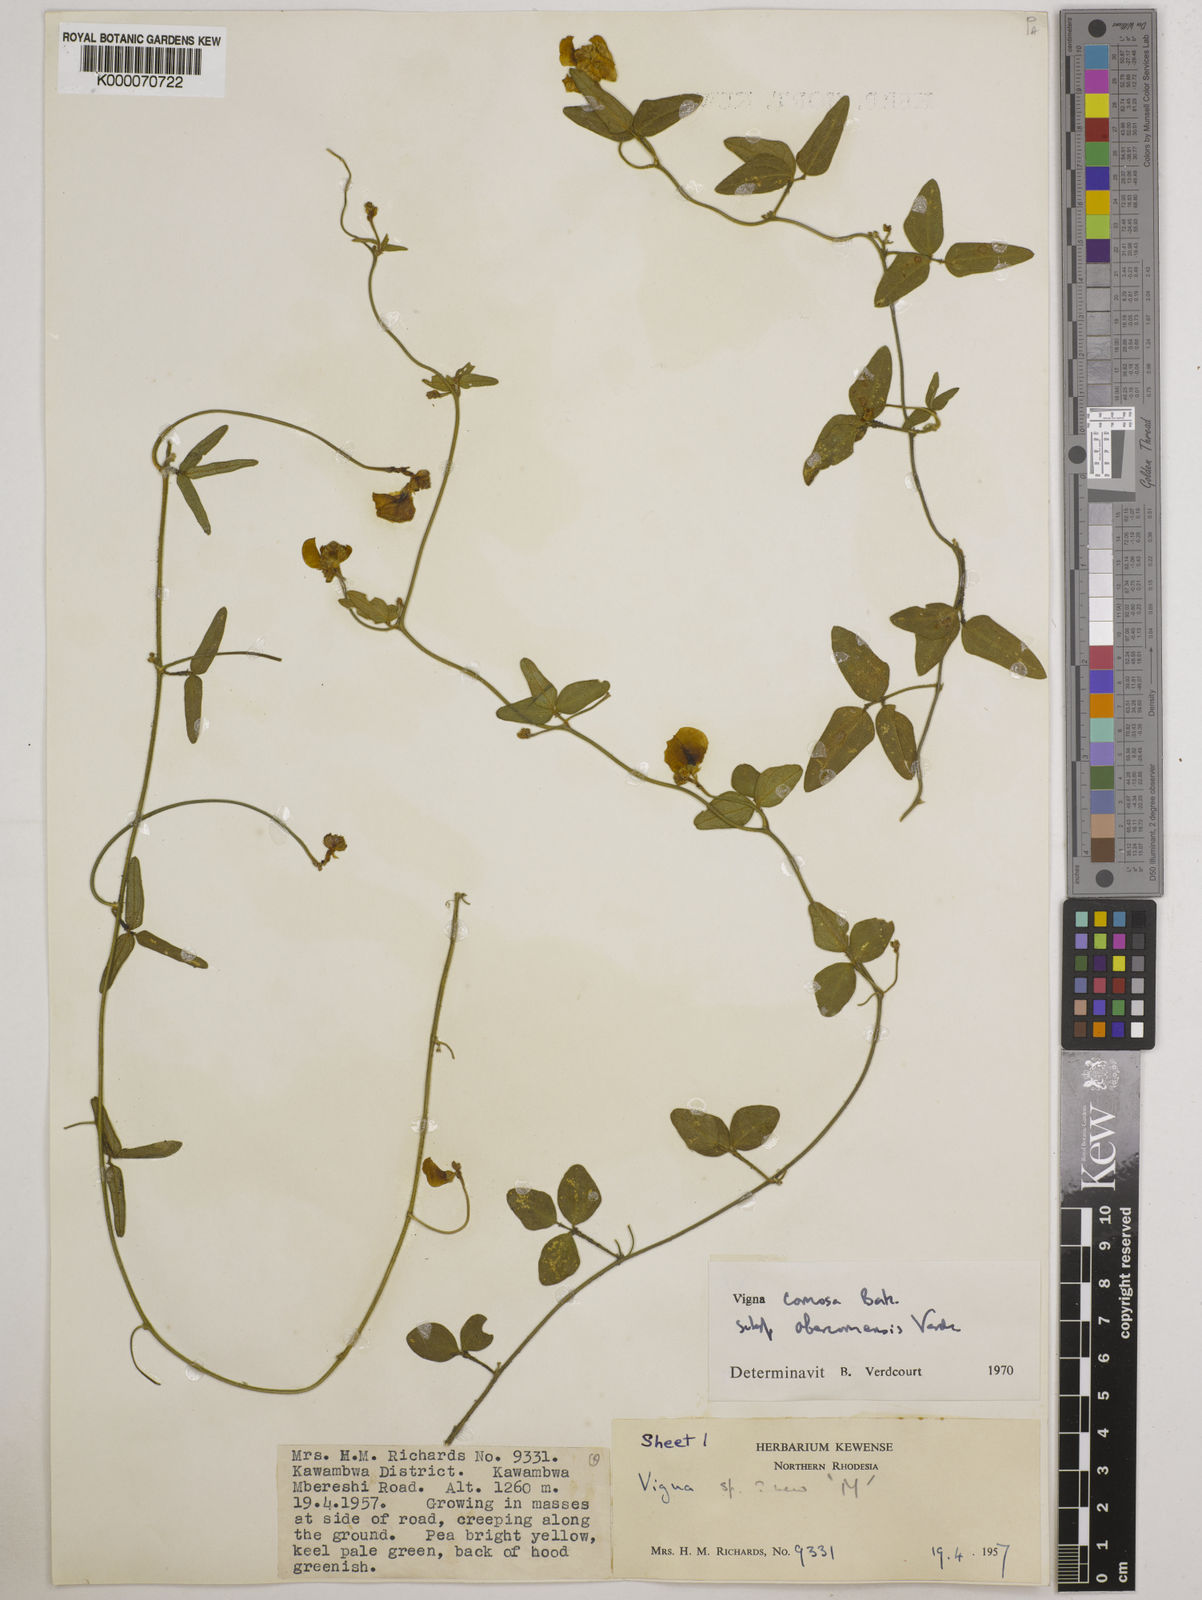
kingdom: Plantae
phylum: Tracheophyta
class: Magnoliopsida
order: Fabales
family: Fabaceae
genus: Vigna
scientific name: Vigna comosa
